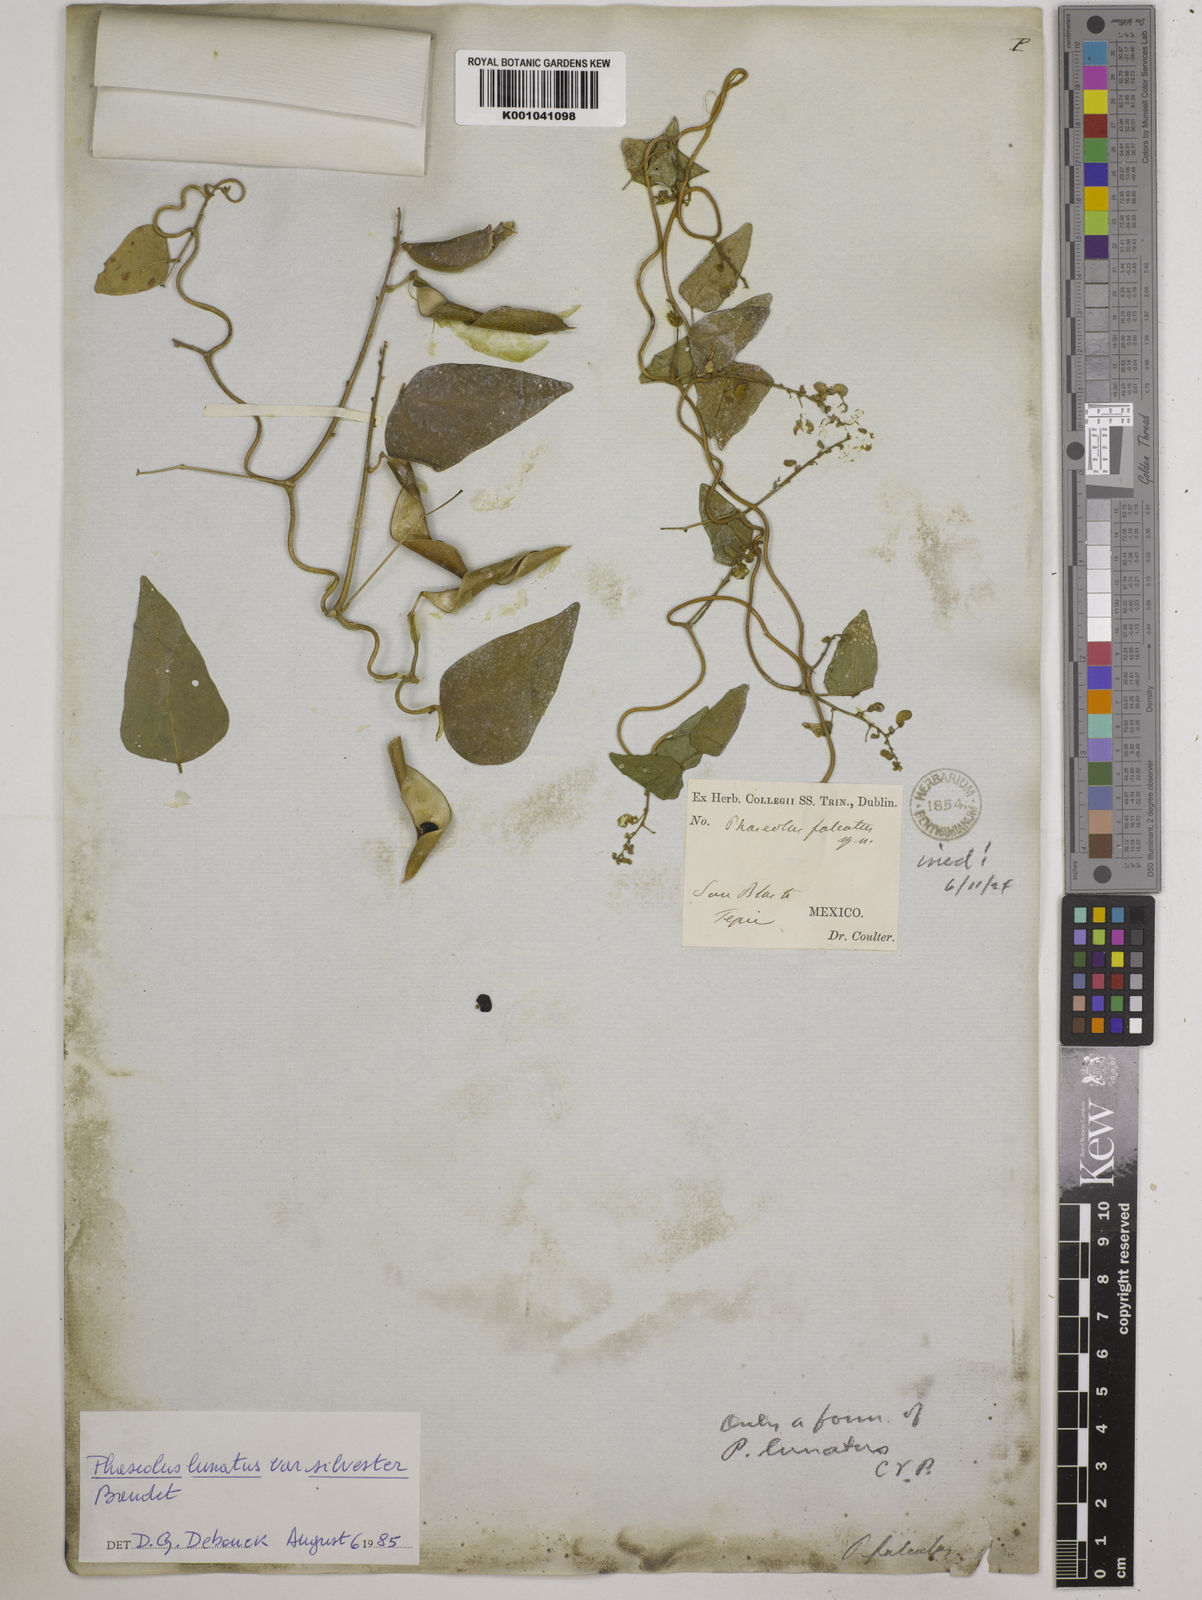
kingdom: Plantae
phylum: Tracheophyta
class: Magnoliopsida
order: Fabales
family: Fabaceae
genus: Phaseolus
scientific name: Phaseolus lunatus
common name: Sieva bean
